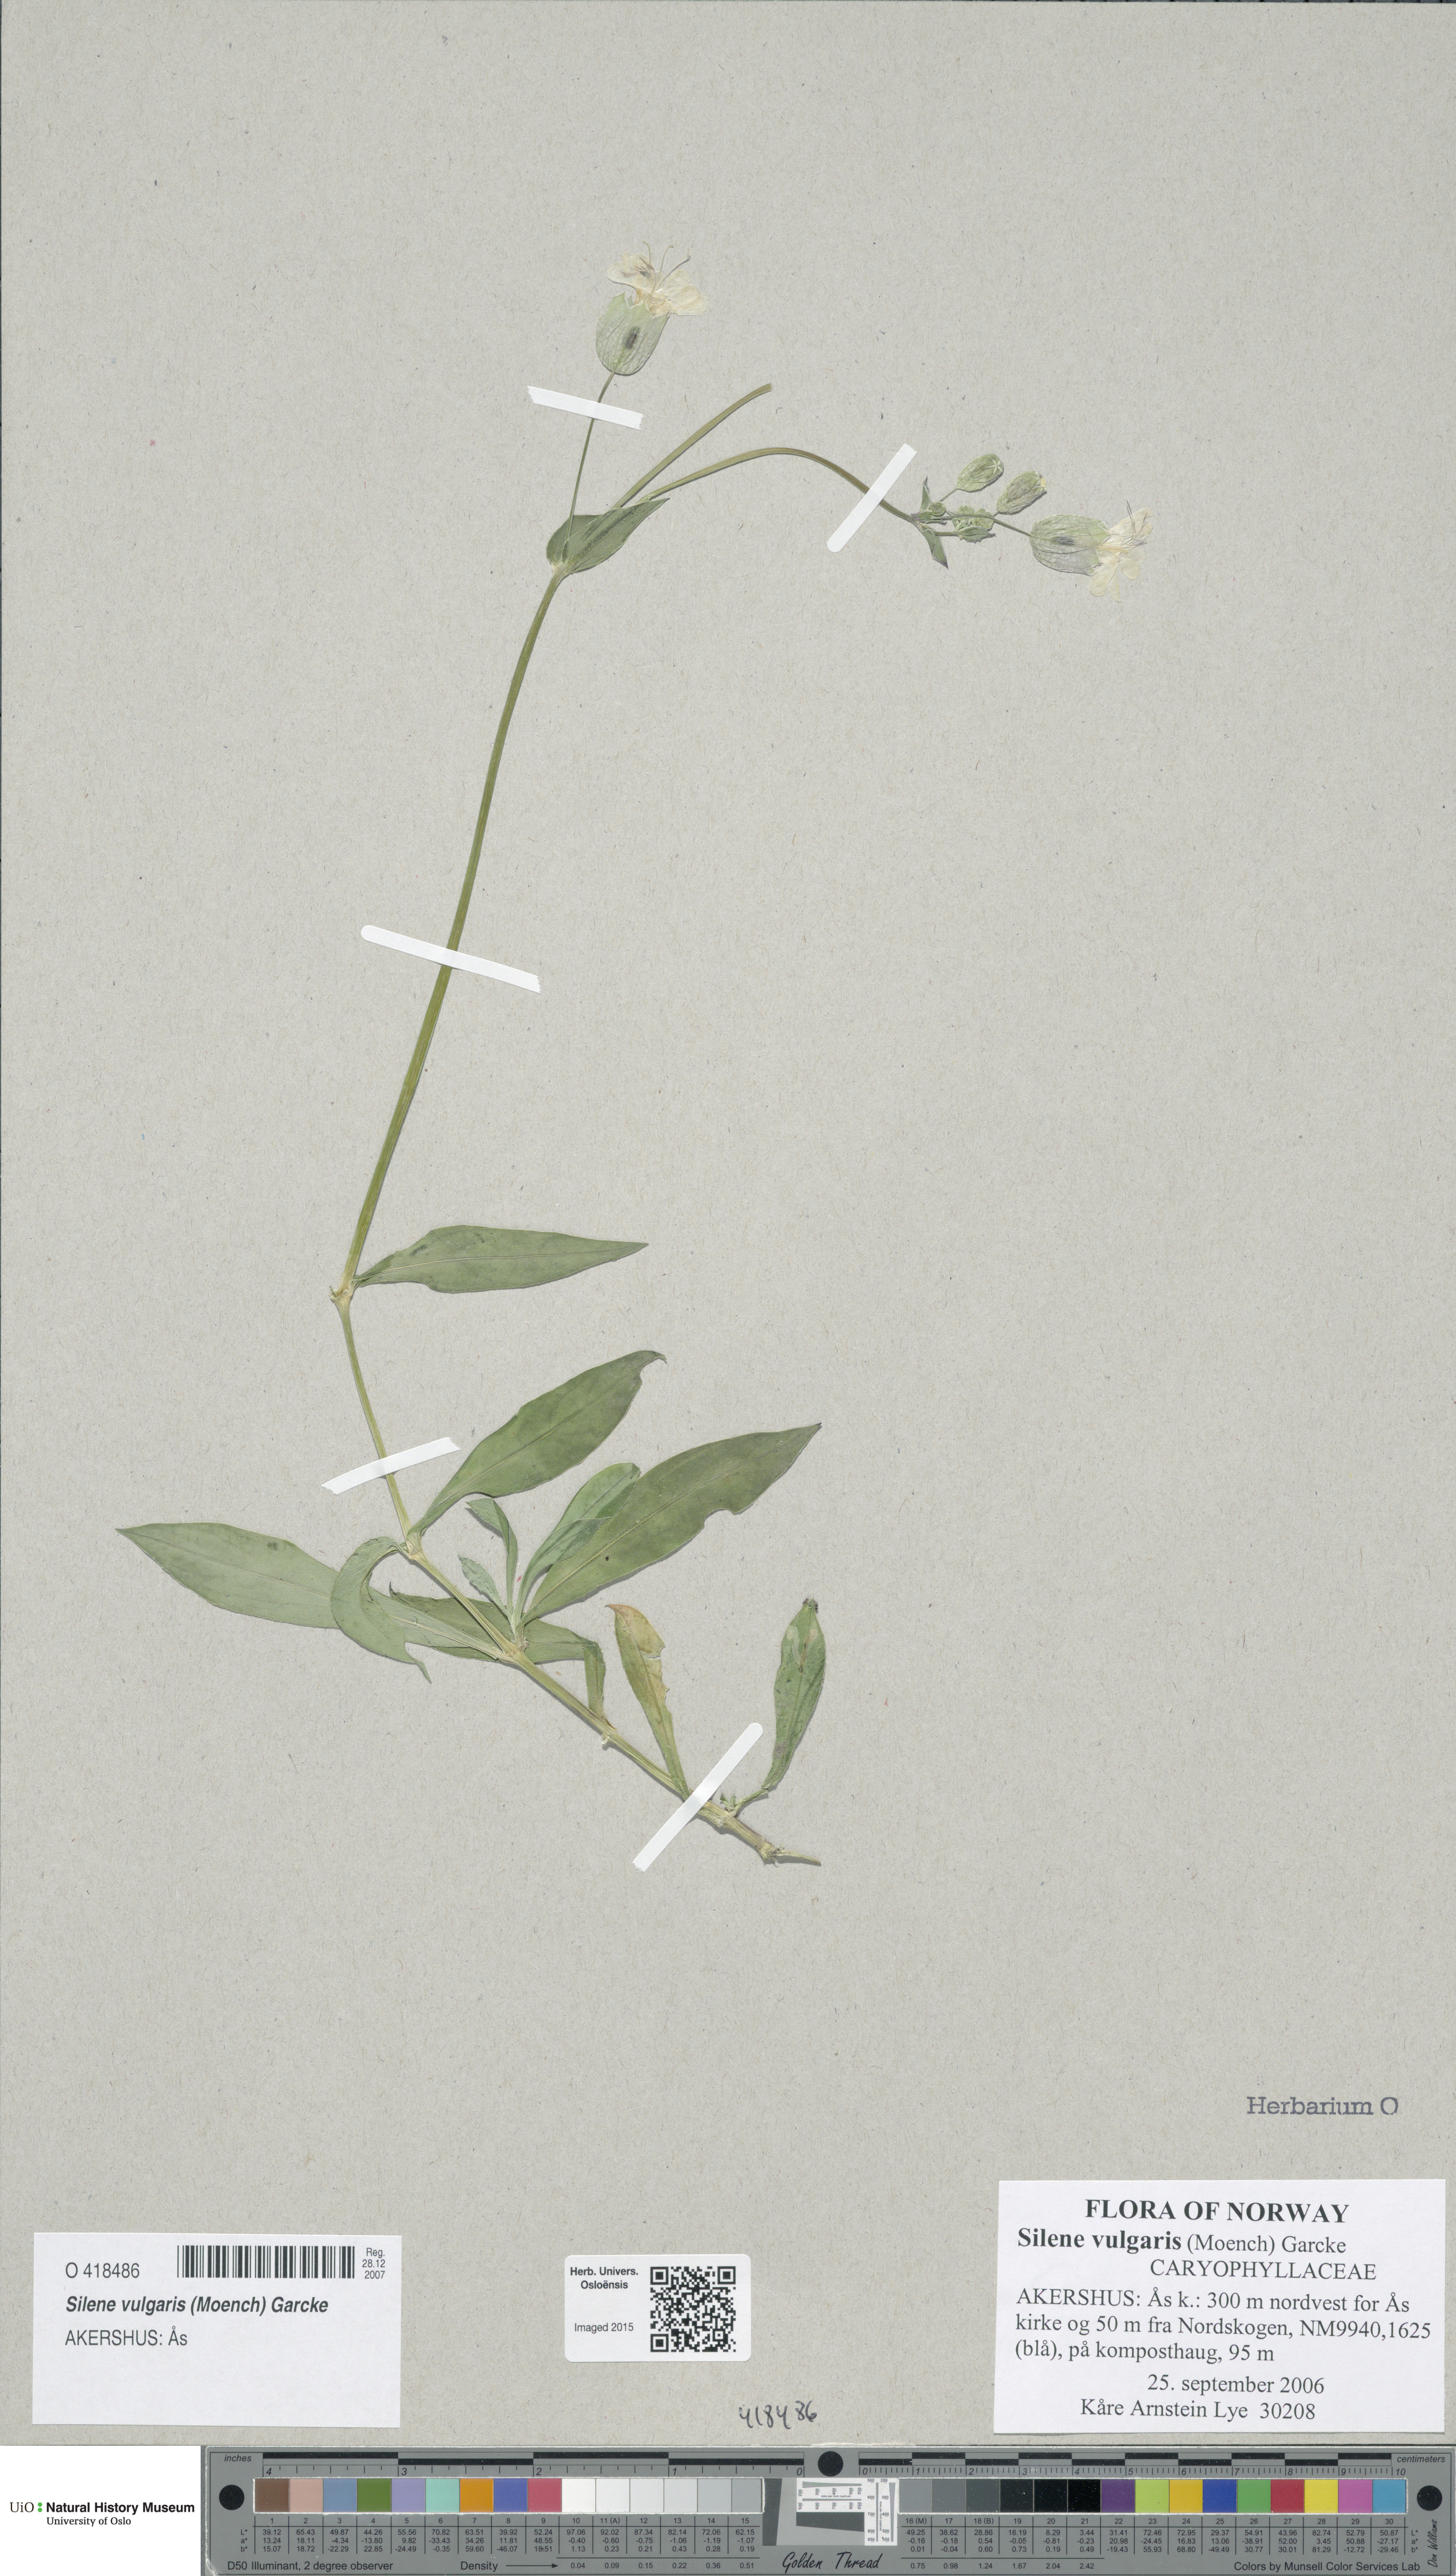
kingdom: Plantae
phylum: Tracheophyta
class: Magnoliopsida
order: Caryophyllales
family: Caryophyllaceae
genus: Silene
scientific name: Silene vulgaris
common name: Bladder campion
